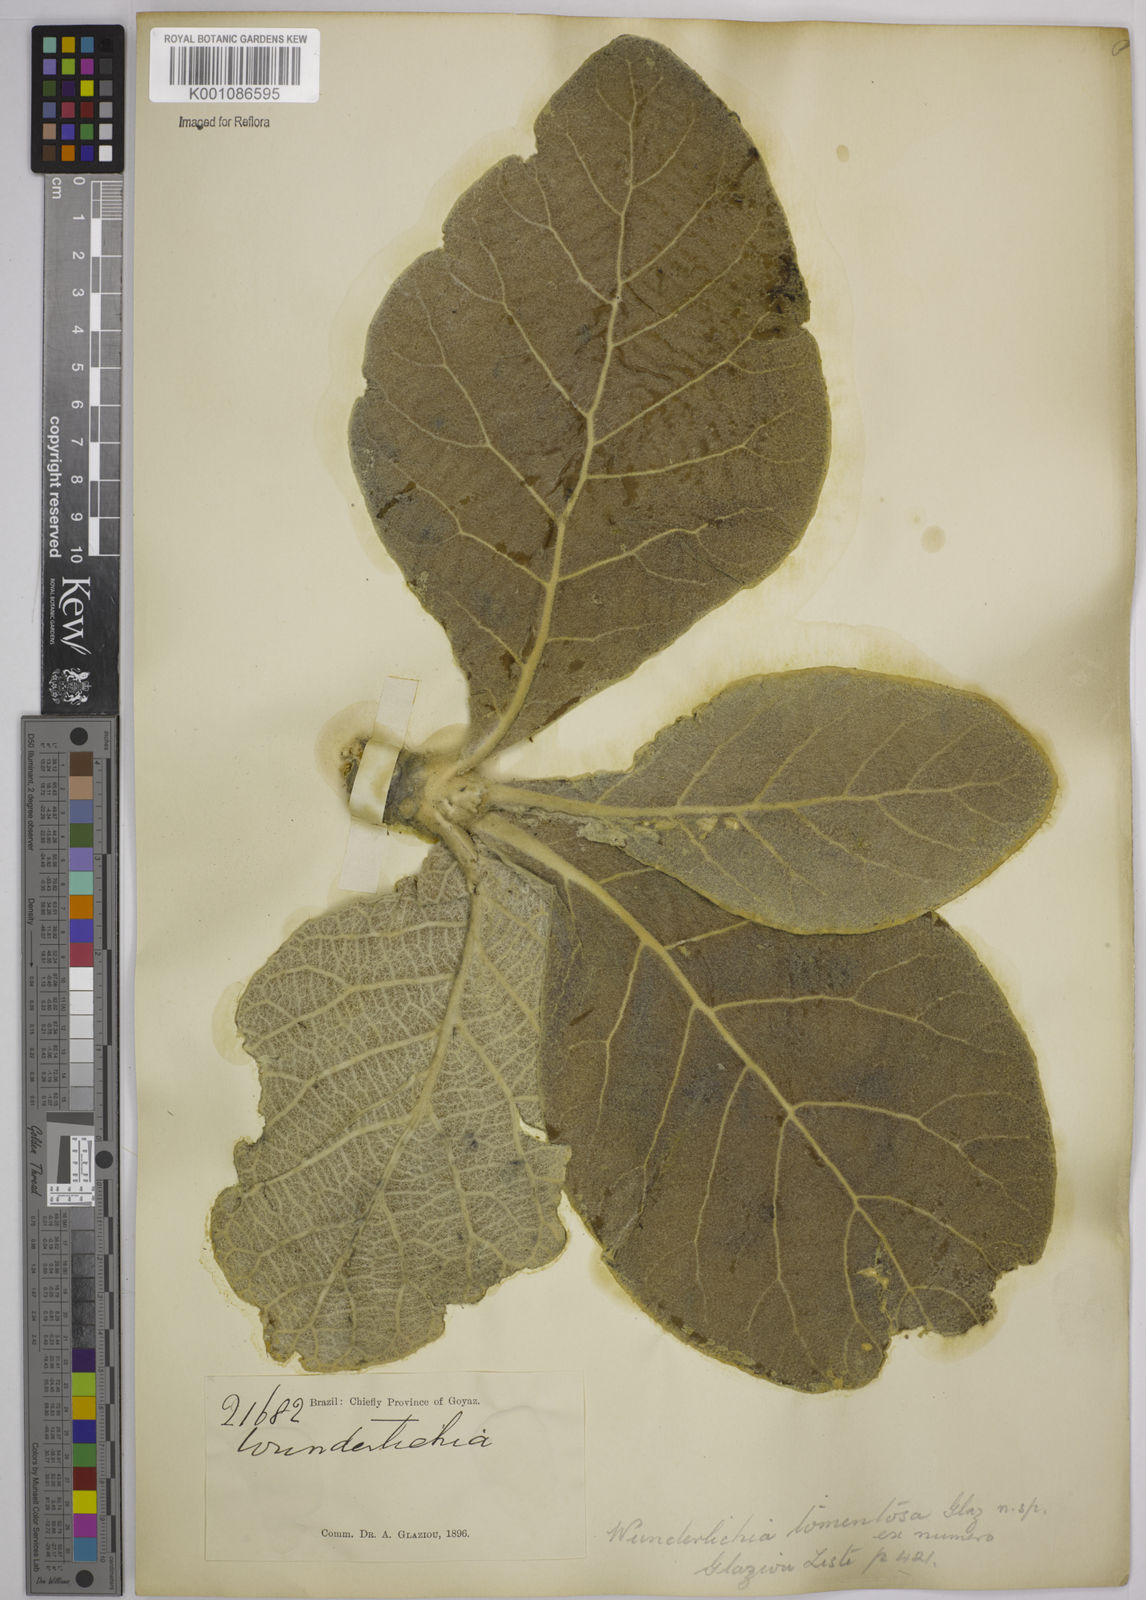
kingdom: Plantae
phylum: Tracheophyta
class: Magnoliopsida
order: Asterales
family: Asteraceae
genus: Wunderlichia
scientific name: Wunderlichia mirabilis
